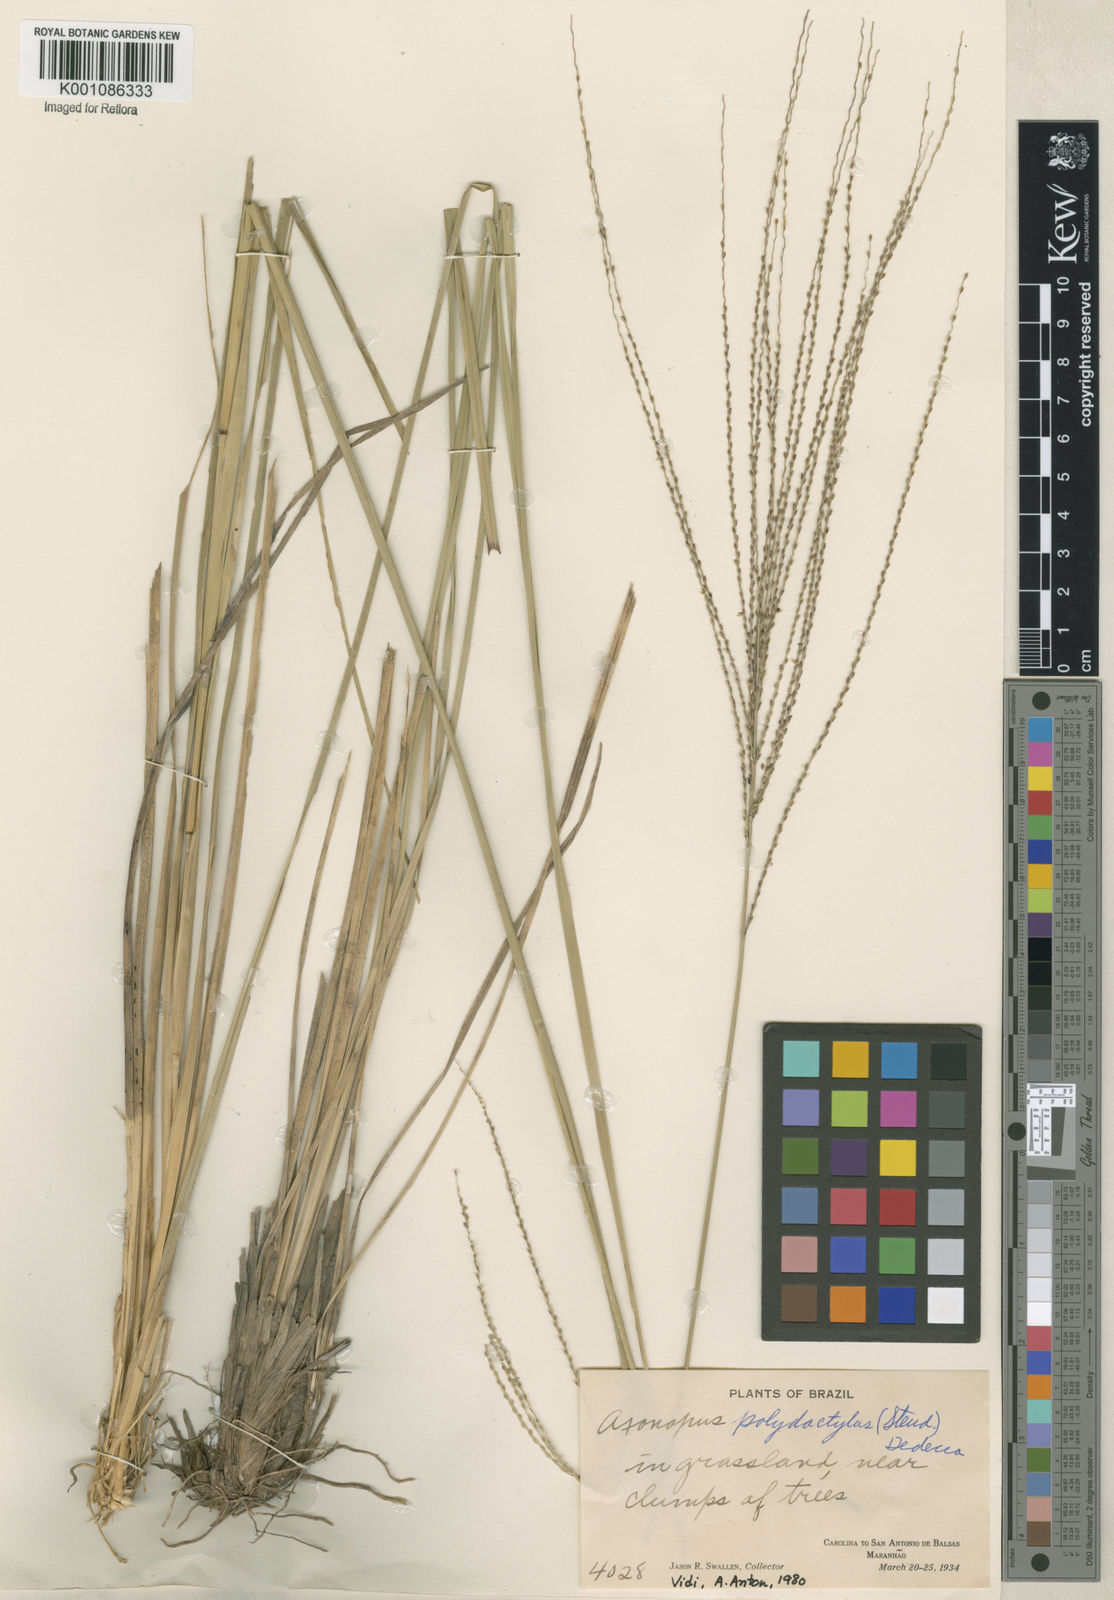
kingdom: Plantae
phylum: Tracheophyta
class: Liliopsida
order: Poales
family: Poaceae
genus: Axonopus
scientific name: Axonopus polydactylus
